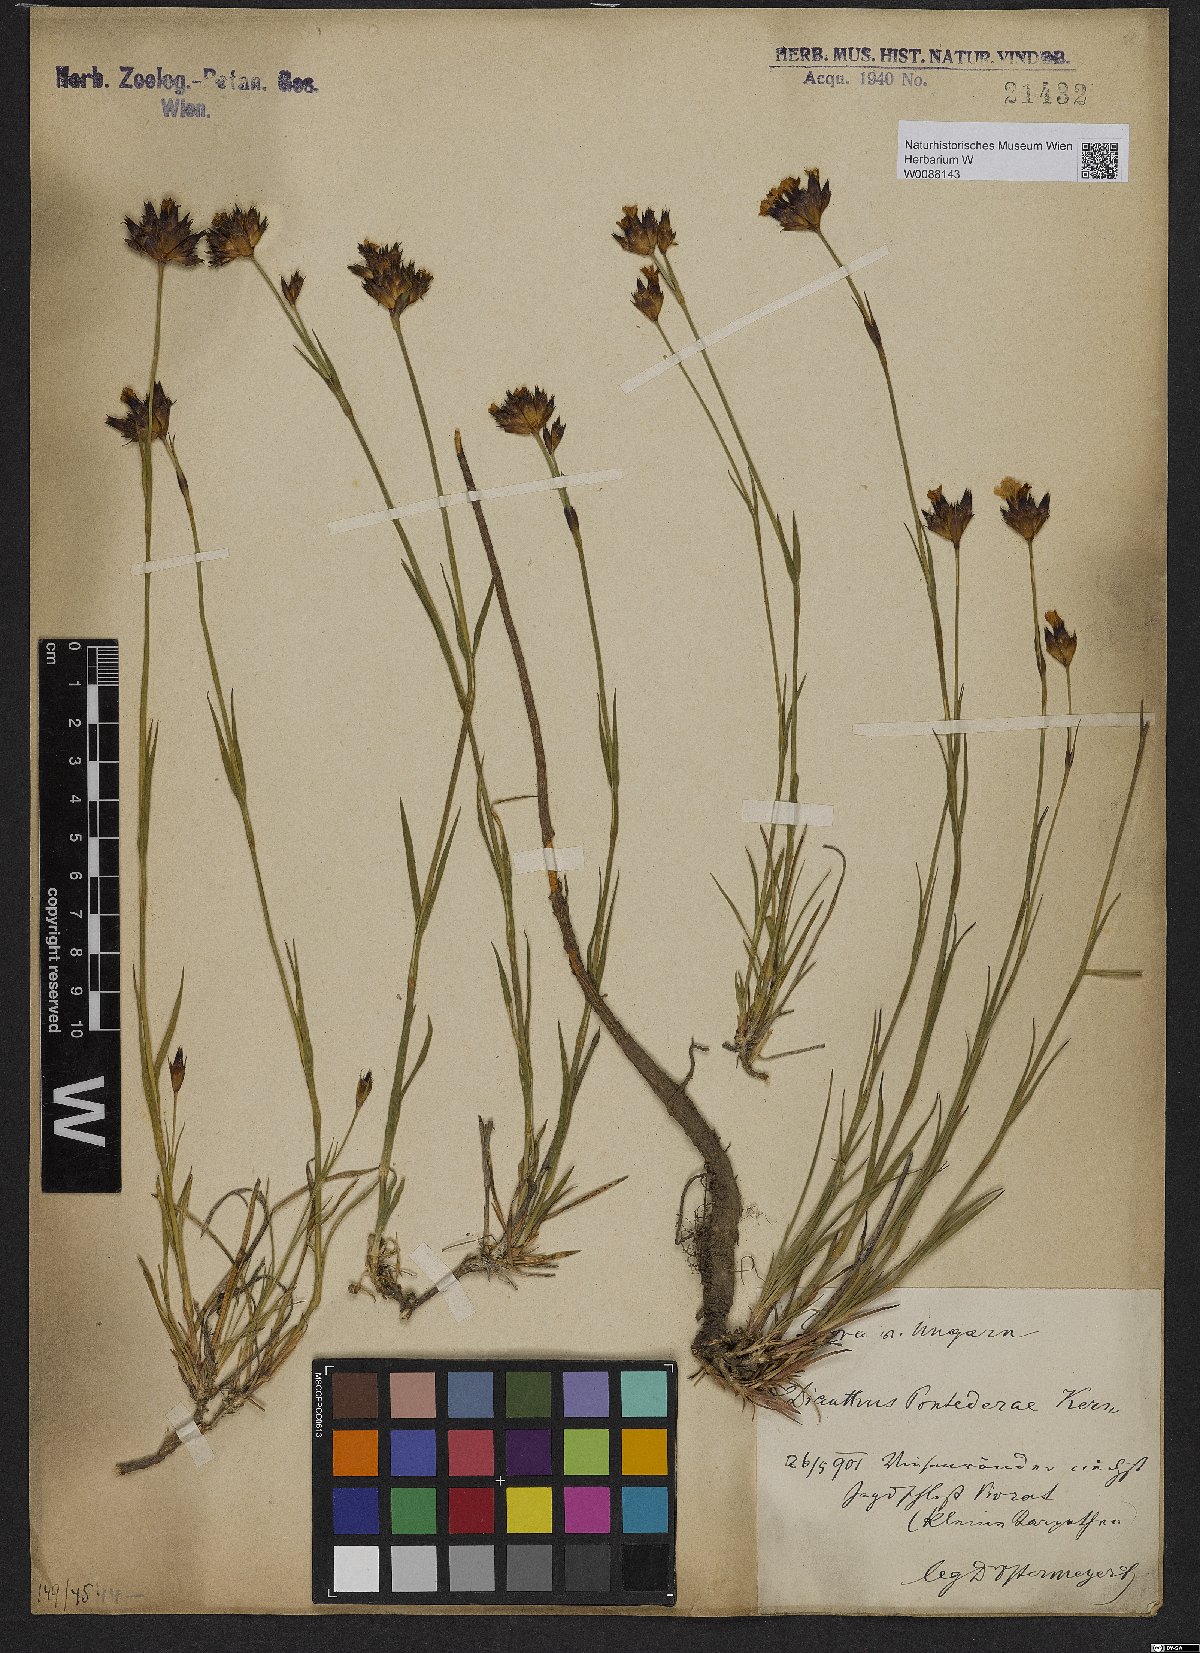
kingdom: Plantae
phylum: Tracheophyta
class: Magnoliopsida
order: Caryophyllales
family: Caryophyllaceae
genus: Dianthus
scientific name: Dianthus pontederae
